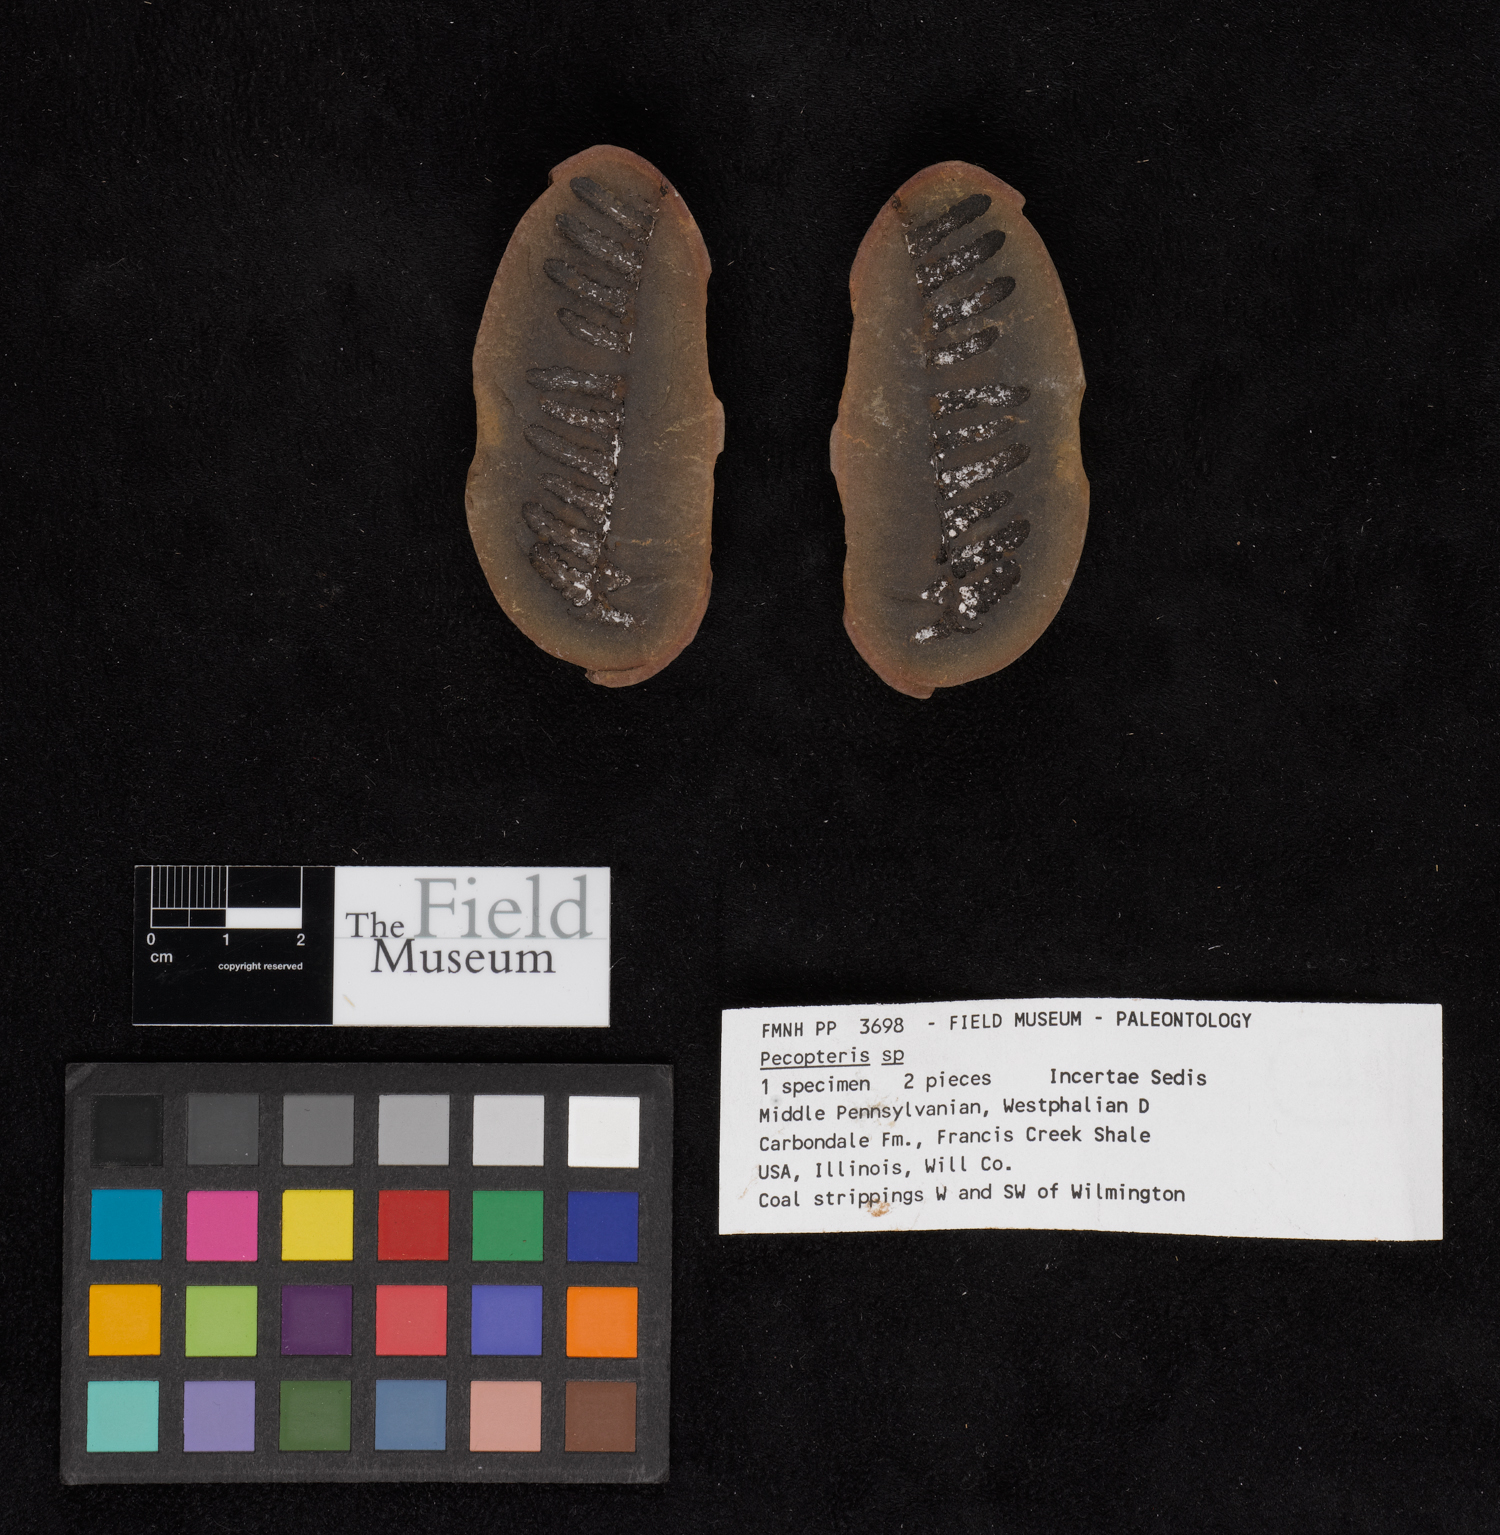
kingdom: Plantae
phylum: Tracheophyta
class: Polypodiopsida
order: Marattiales
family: Asterothecaceae
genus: Pecopteris
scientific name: Pecopteris
